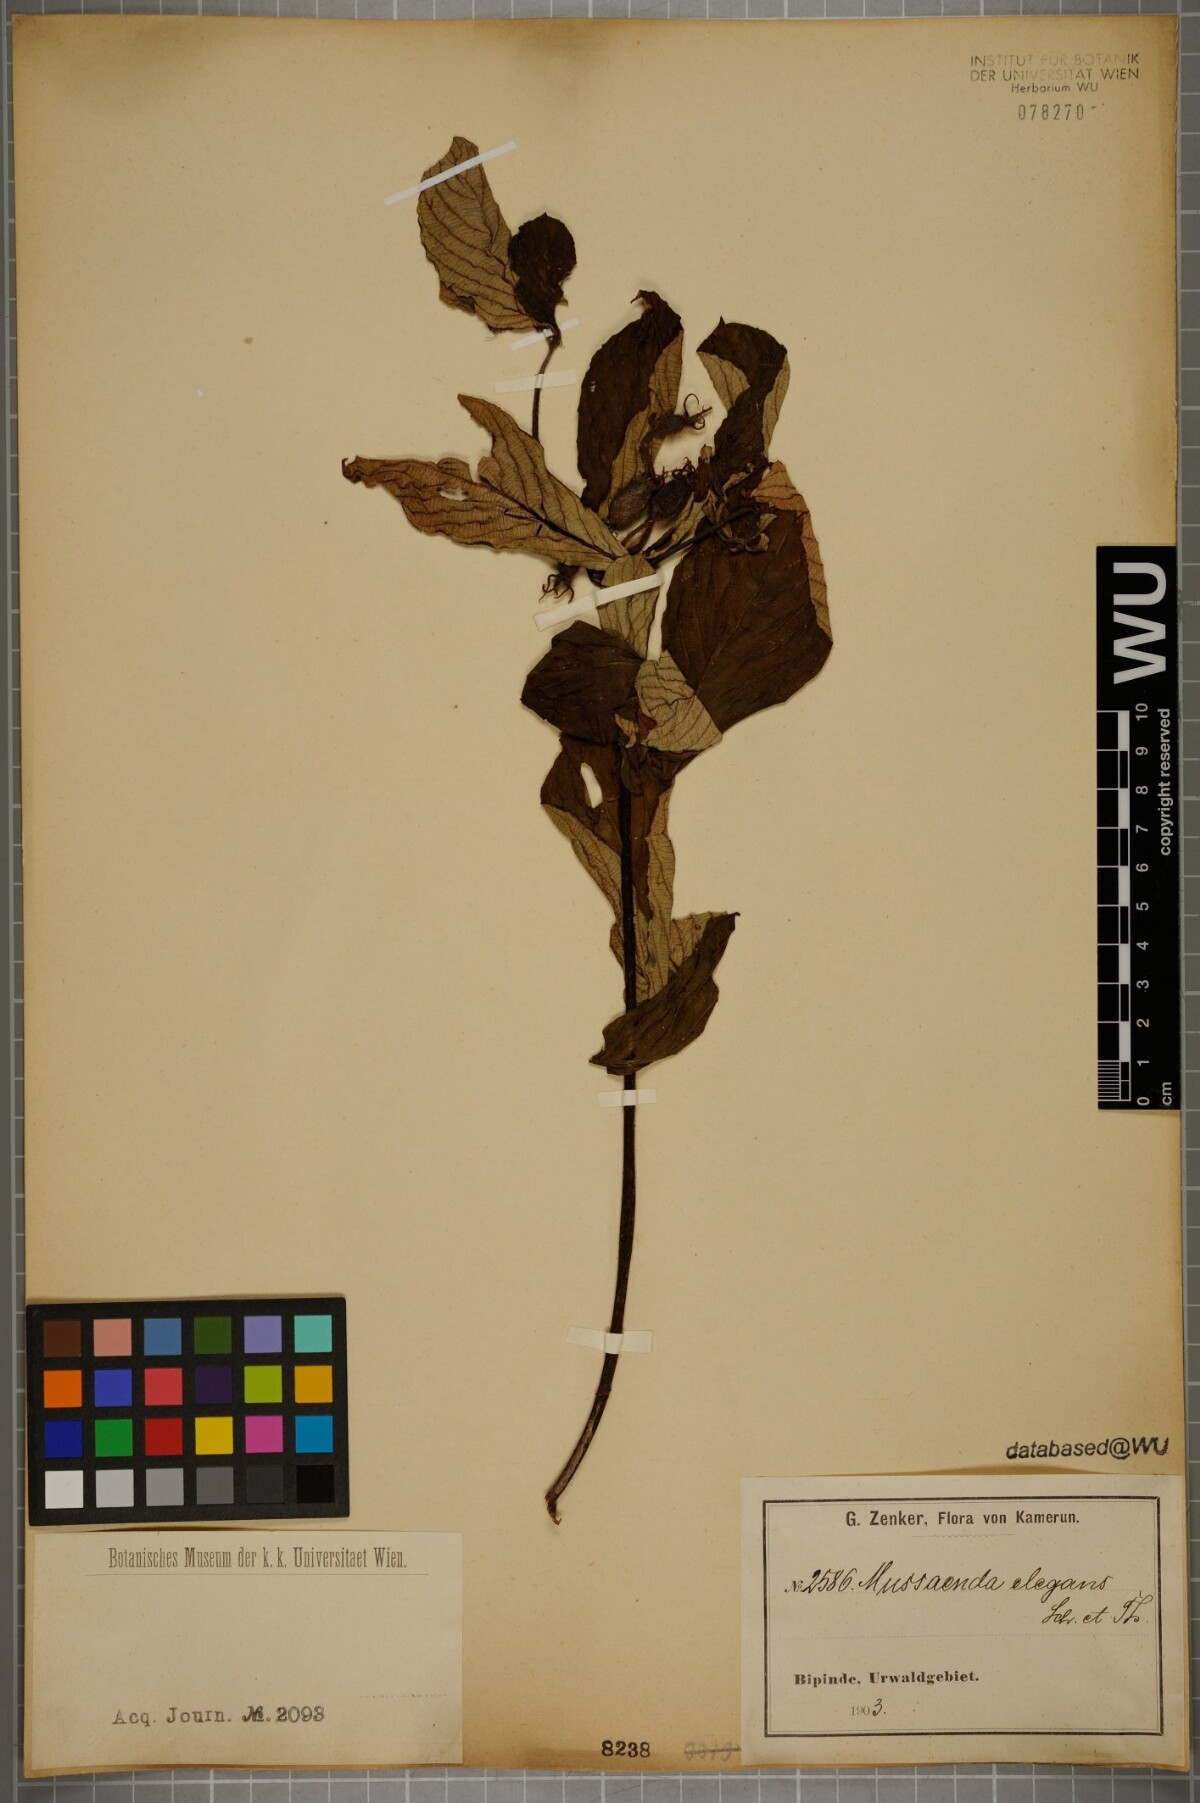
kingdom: Plantae
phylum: Tracheophyta
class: Magnoliopsida
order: Gentianales
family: Rubiaceae
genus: Mussaenda
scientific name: Mussaenda elegans
